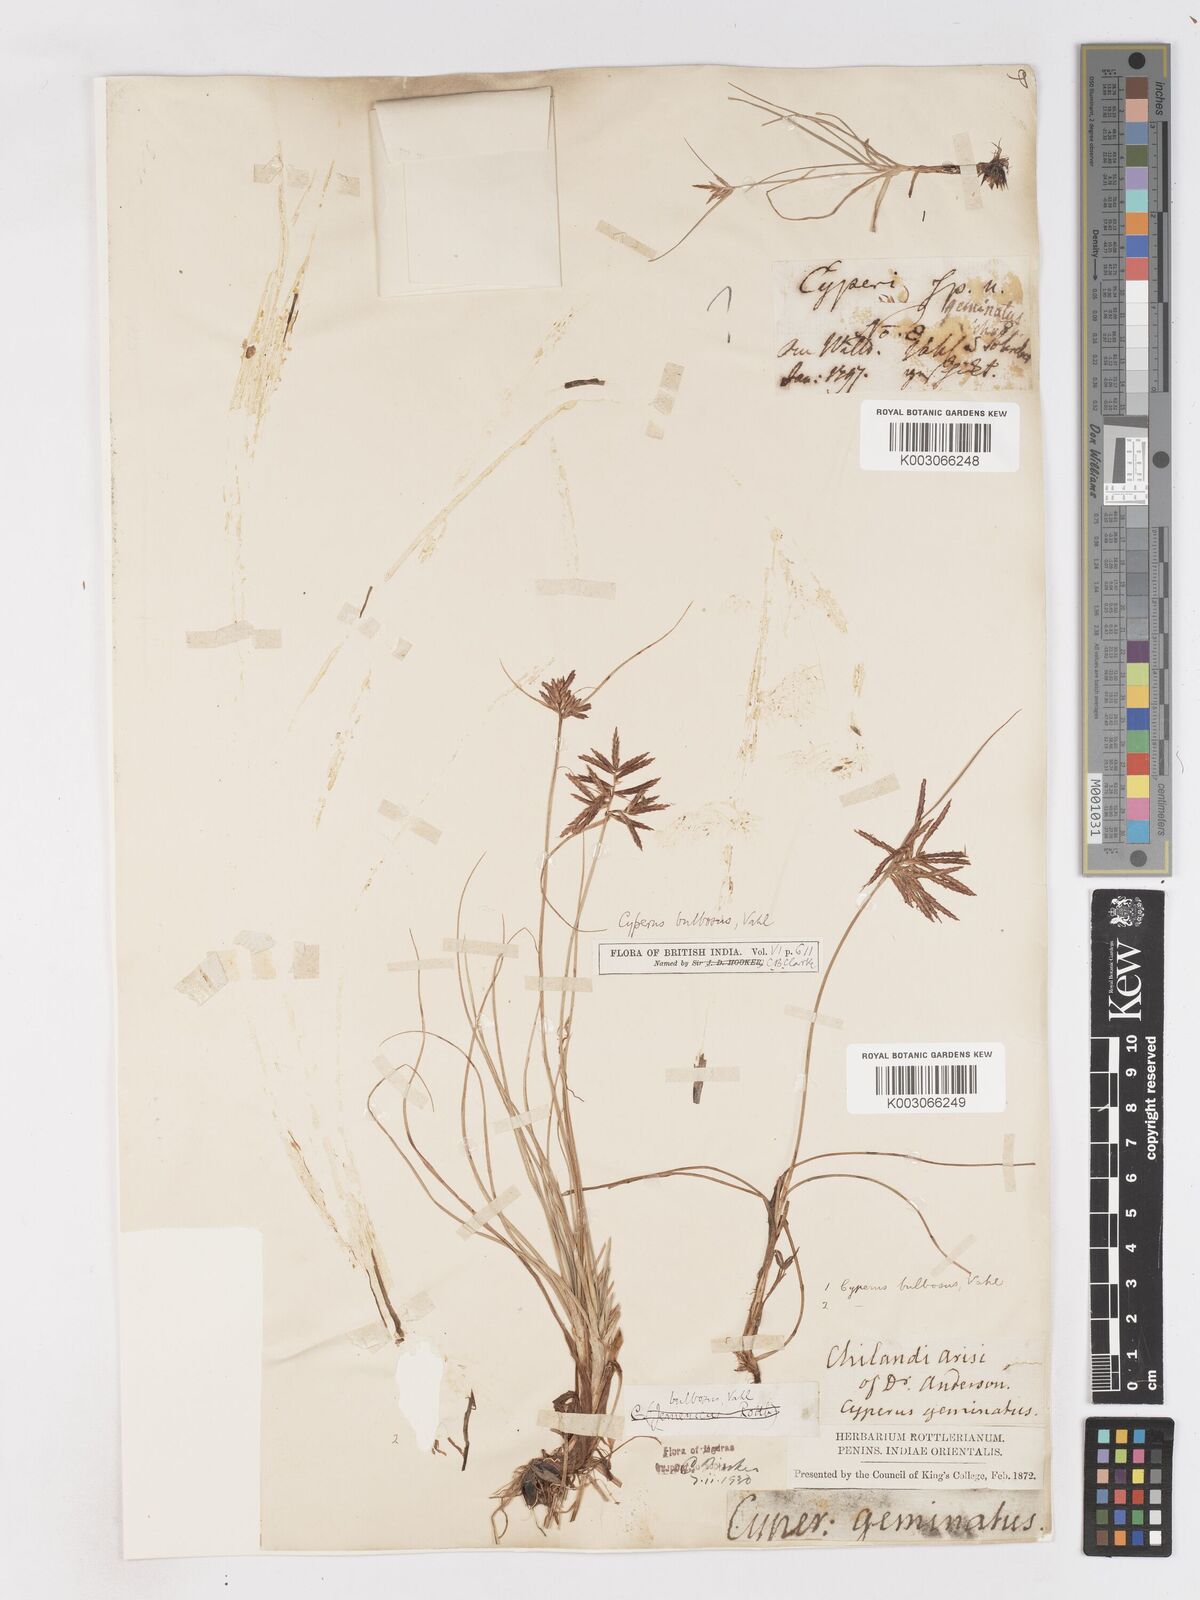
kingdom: Plantae
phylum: Tracheophyta
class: Liliopsida
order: Poales
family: Cyperaceae
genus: Cyperus
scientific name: Cyperus bulbosus
